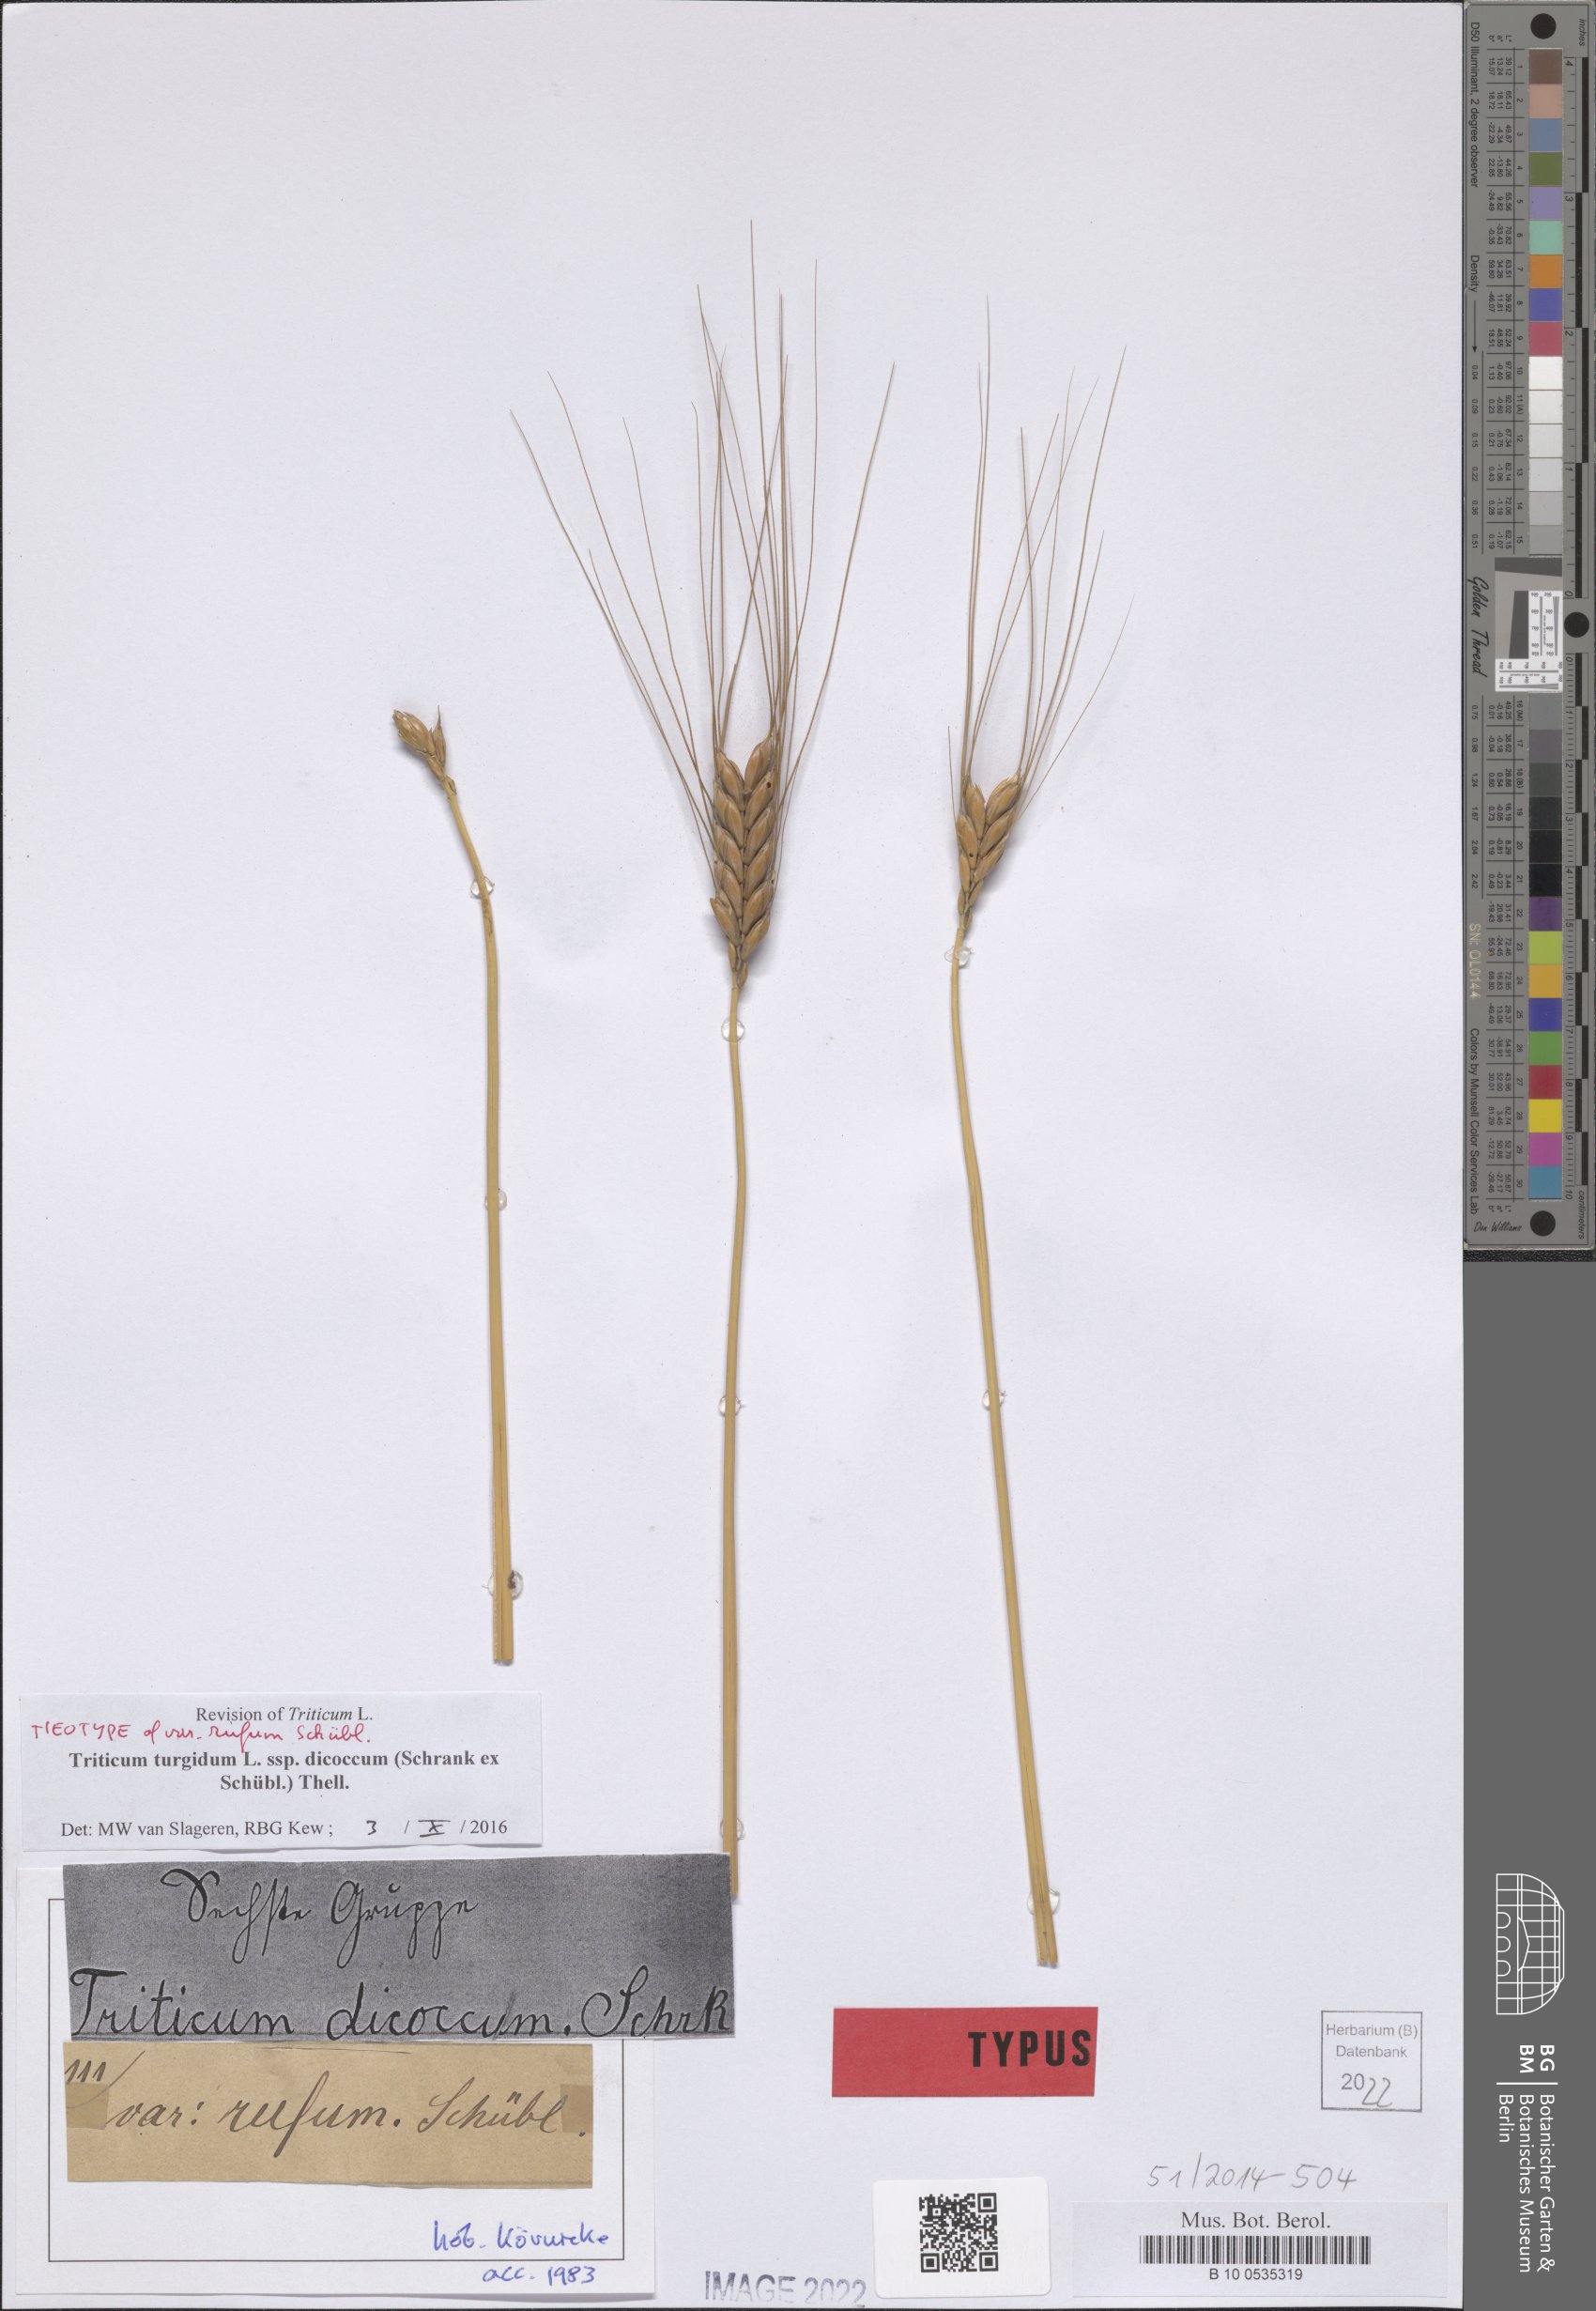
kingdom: Plantae
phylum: Tracheophyta
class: Liliopsida
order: Poales
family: Poaceae
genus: Triticum
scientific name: Triticum turgidum
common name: Rivet wheat
